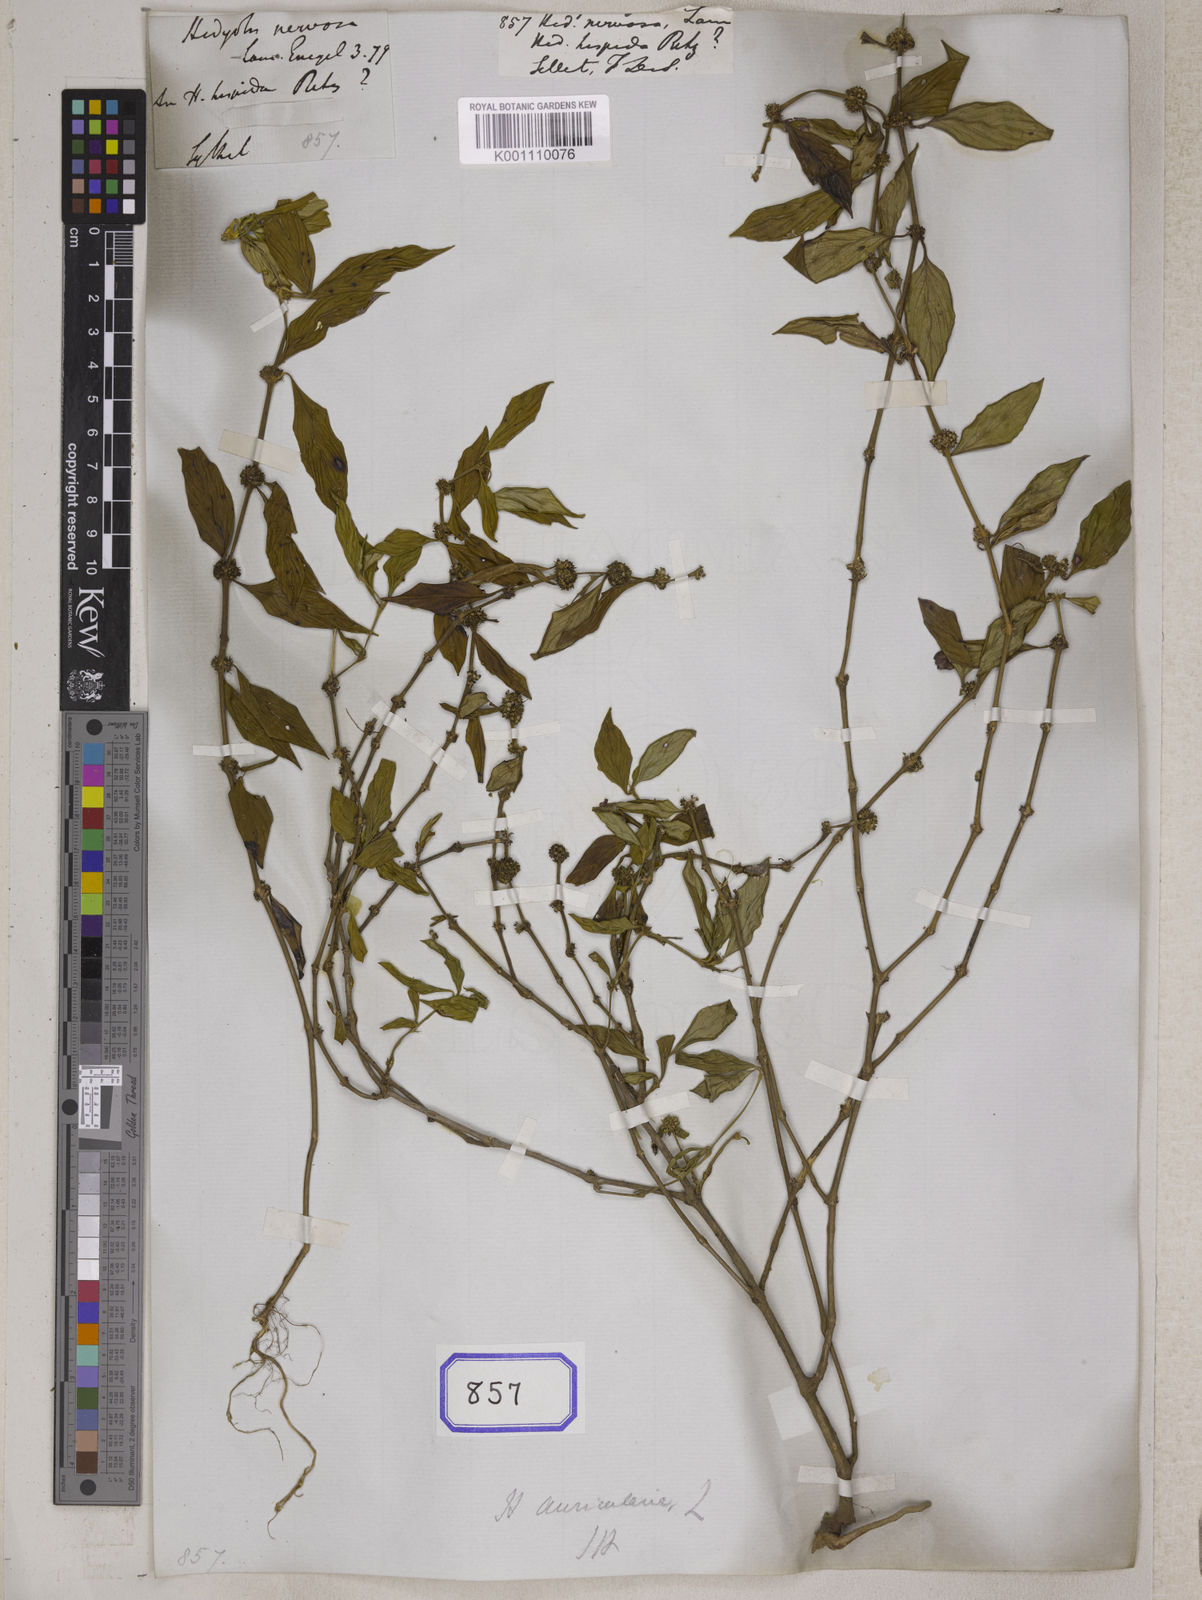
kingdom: Plantae
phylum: Tracheophyta
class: Magnoliopsida
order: Gentianales
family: Rubiaceae
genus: Exallage
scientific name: Exallage auricularia
